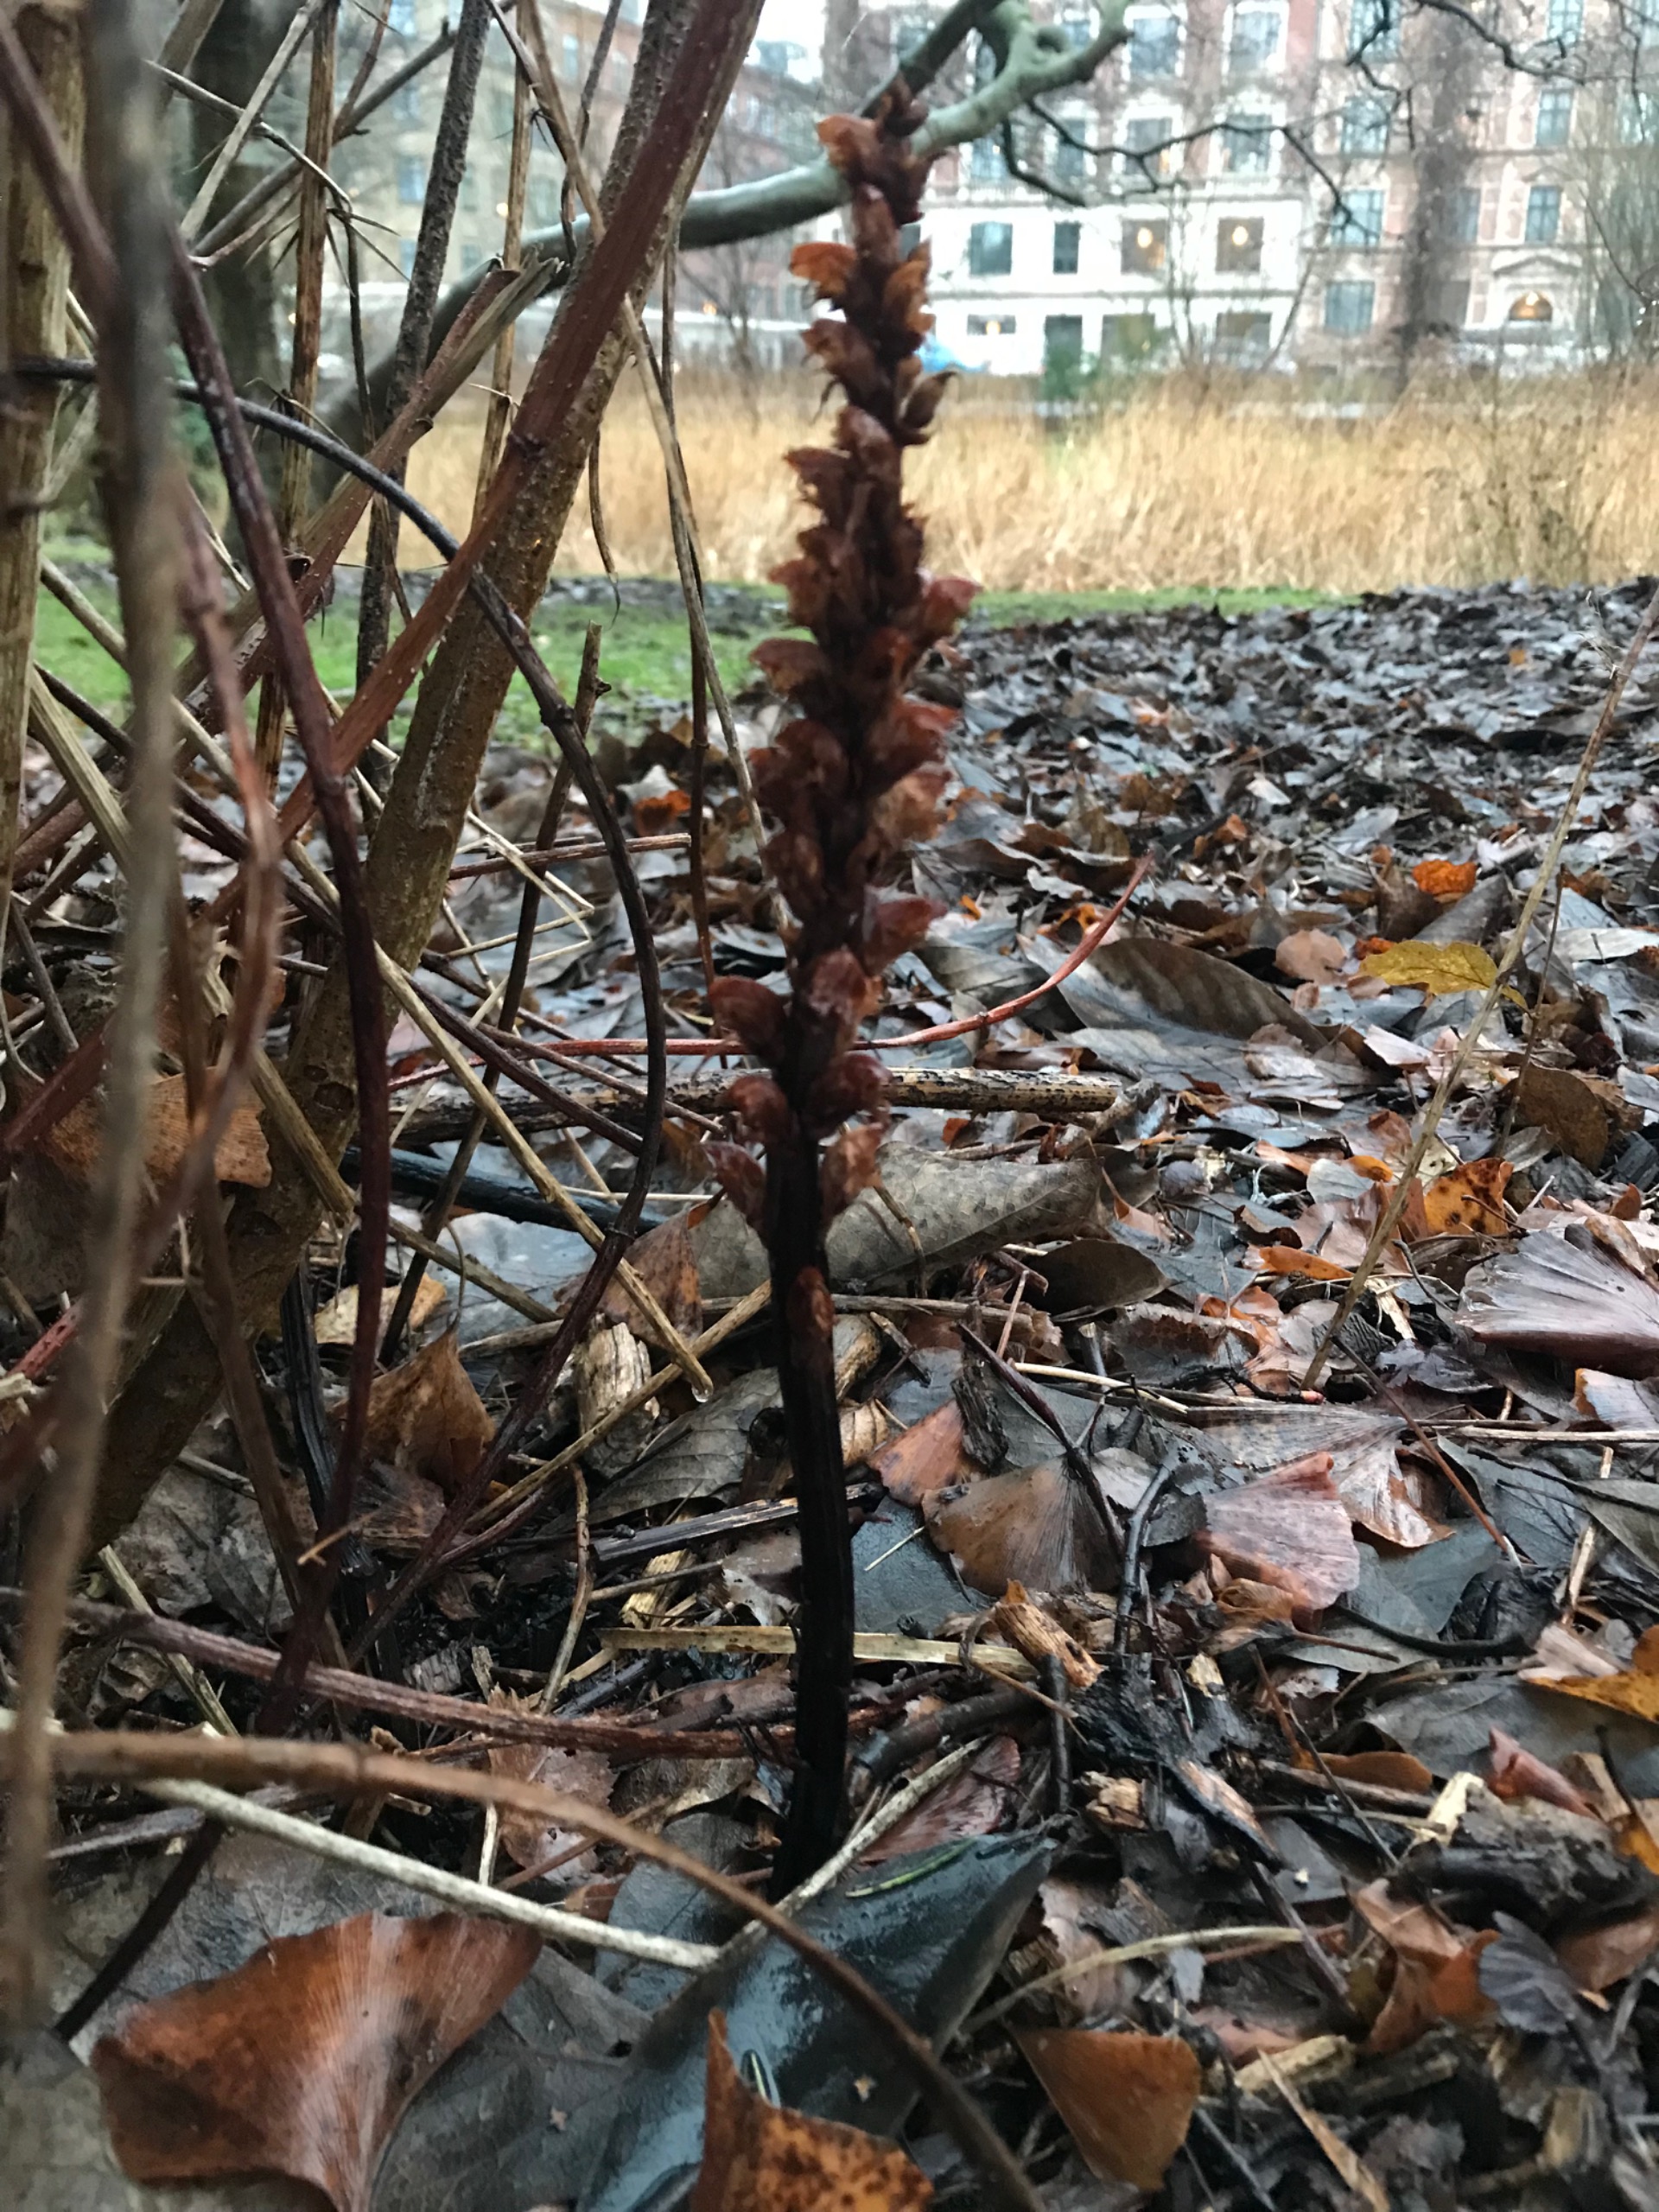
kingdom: Plantae
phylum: Tracheophyta
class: Magnoliopsida
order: Lamiales
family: Orobanchaceae
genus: Orobanche
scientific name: Orobanche lucorum
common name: Berberis-gyvelkvæler
